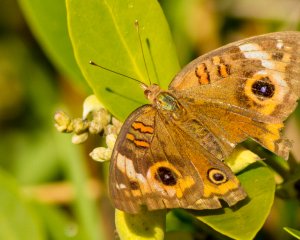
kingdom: Animalia
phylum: Arthropoda
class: Insecta
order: Lepidoptera
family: Nymphalidae
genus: Junonia
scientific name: Junonia coenia
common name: Common Buckeye
